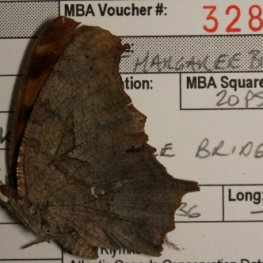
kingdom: Animalia
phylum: Arthropoda
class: Insecta
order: Lepidoptera
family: Nymphalidae
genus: Polygonia
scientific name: Polygonia interrogationis
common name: Question Mark
